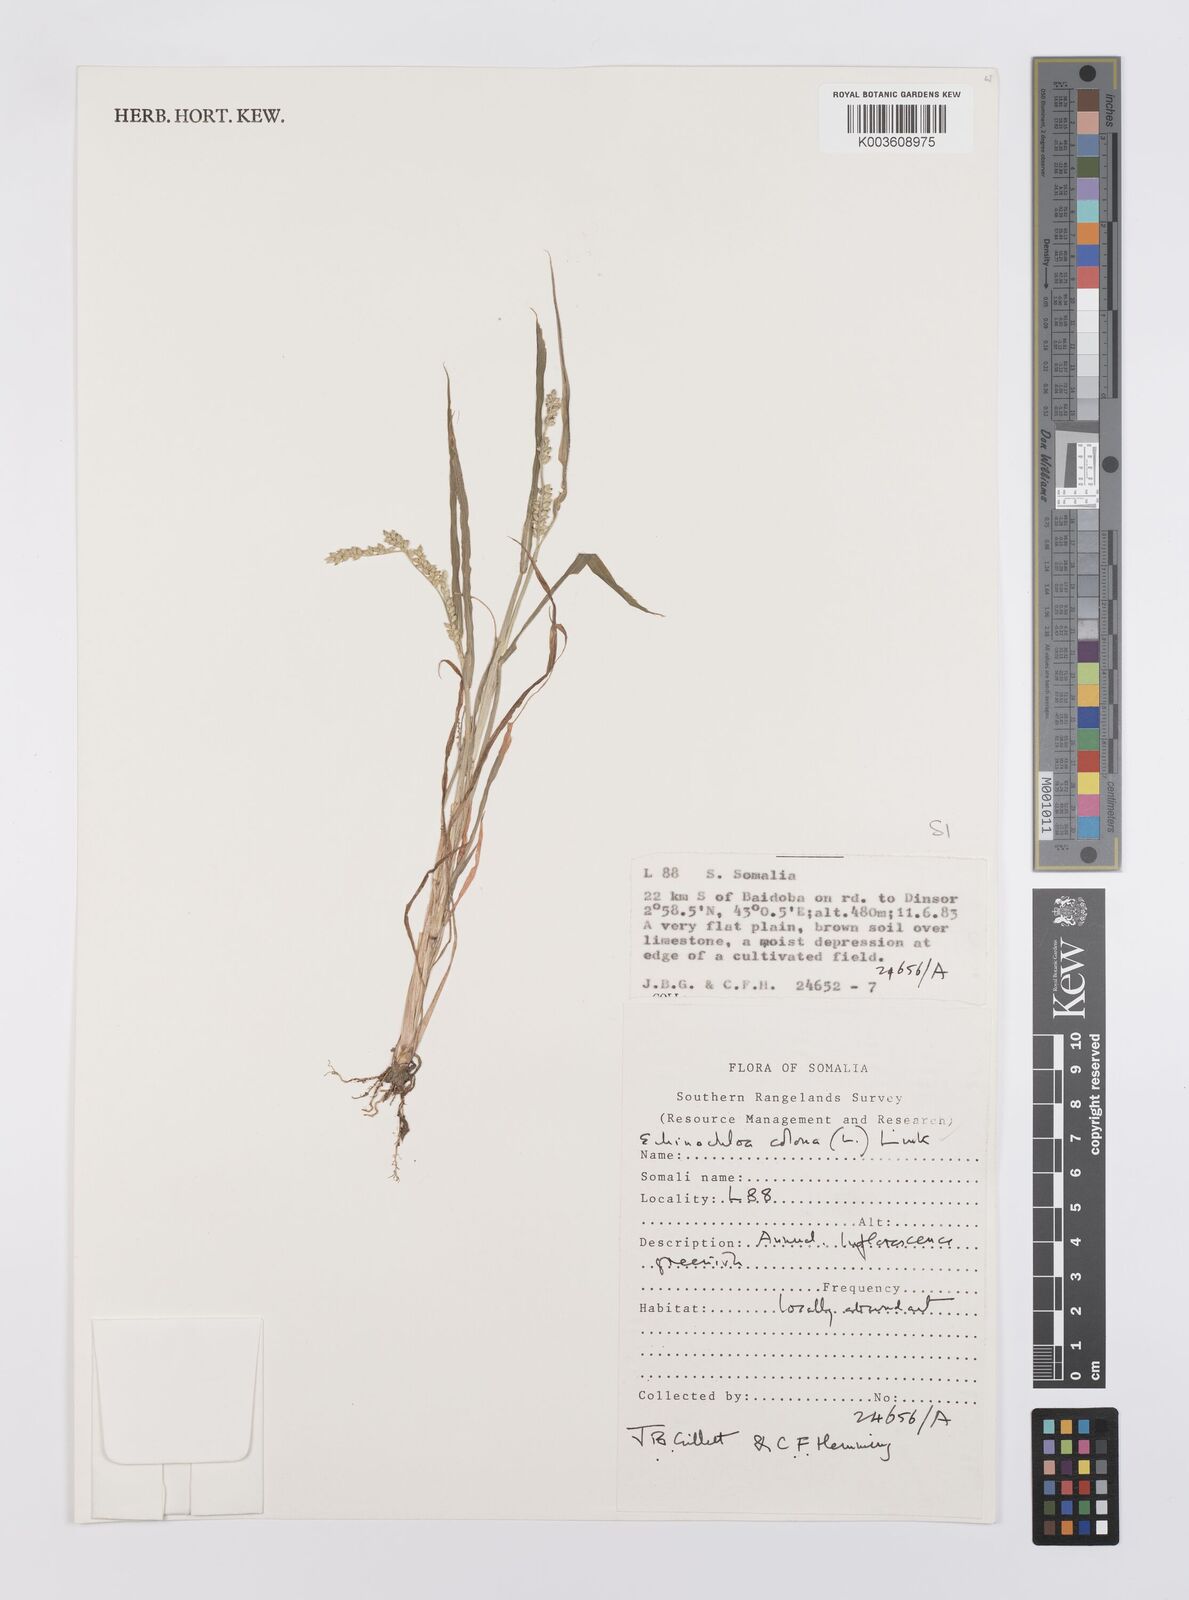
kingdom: Plantae
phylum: Tracheophyta
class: Liliopsida
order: Poales
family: Poaceae
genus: Echinochloa
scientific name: Echinochloa colonum
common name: Jungle rice
